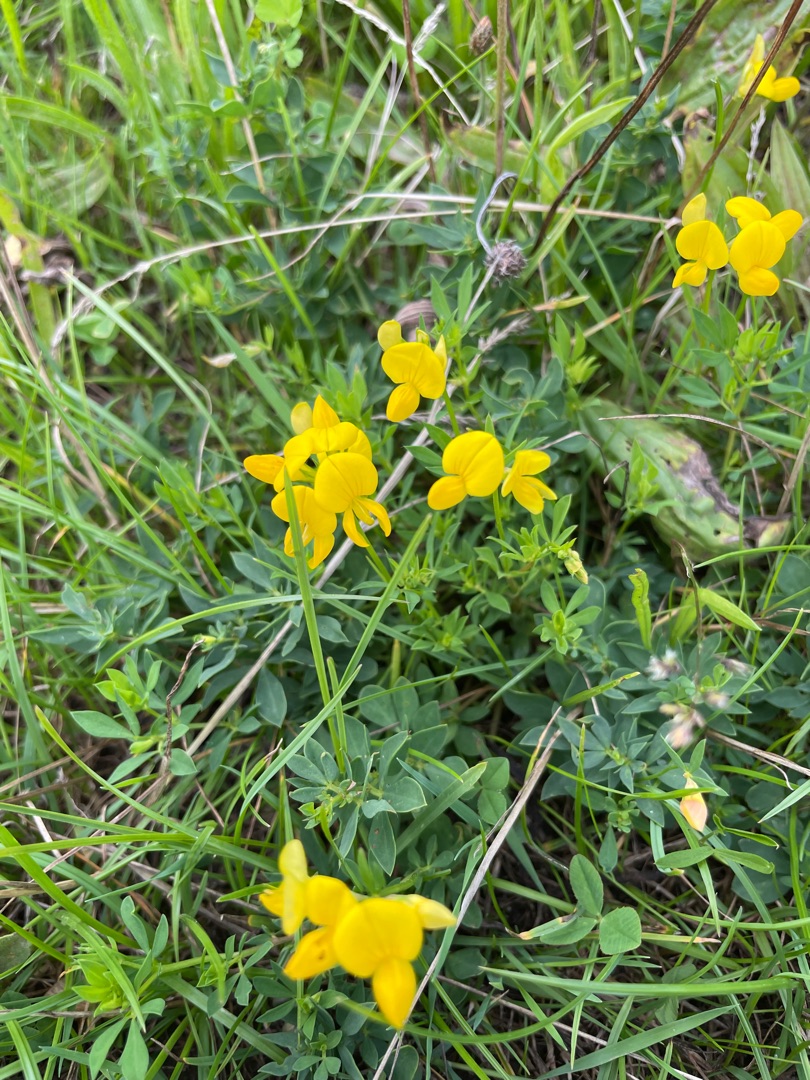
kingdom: Plantae
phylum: Tracheophyta
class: Magnoliopsida
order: Fabales
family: Fabaceae
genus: Lotus
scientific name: Lotus corniculatus
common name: Almindelig kællingetand
